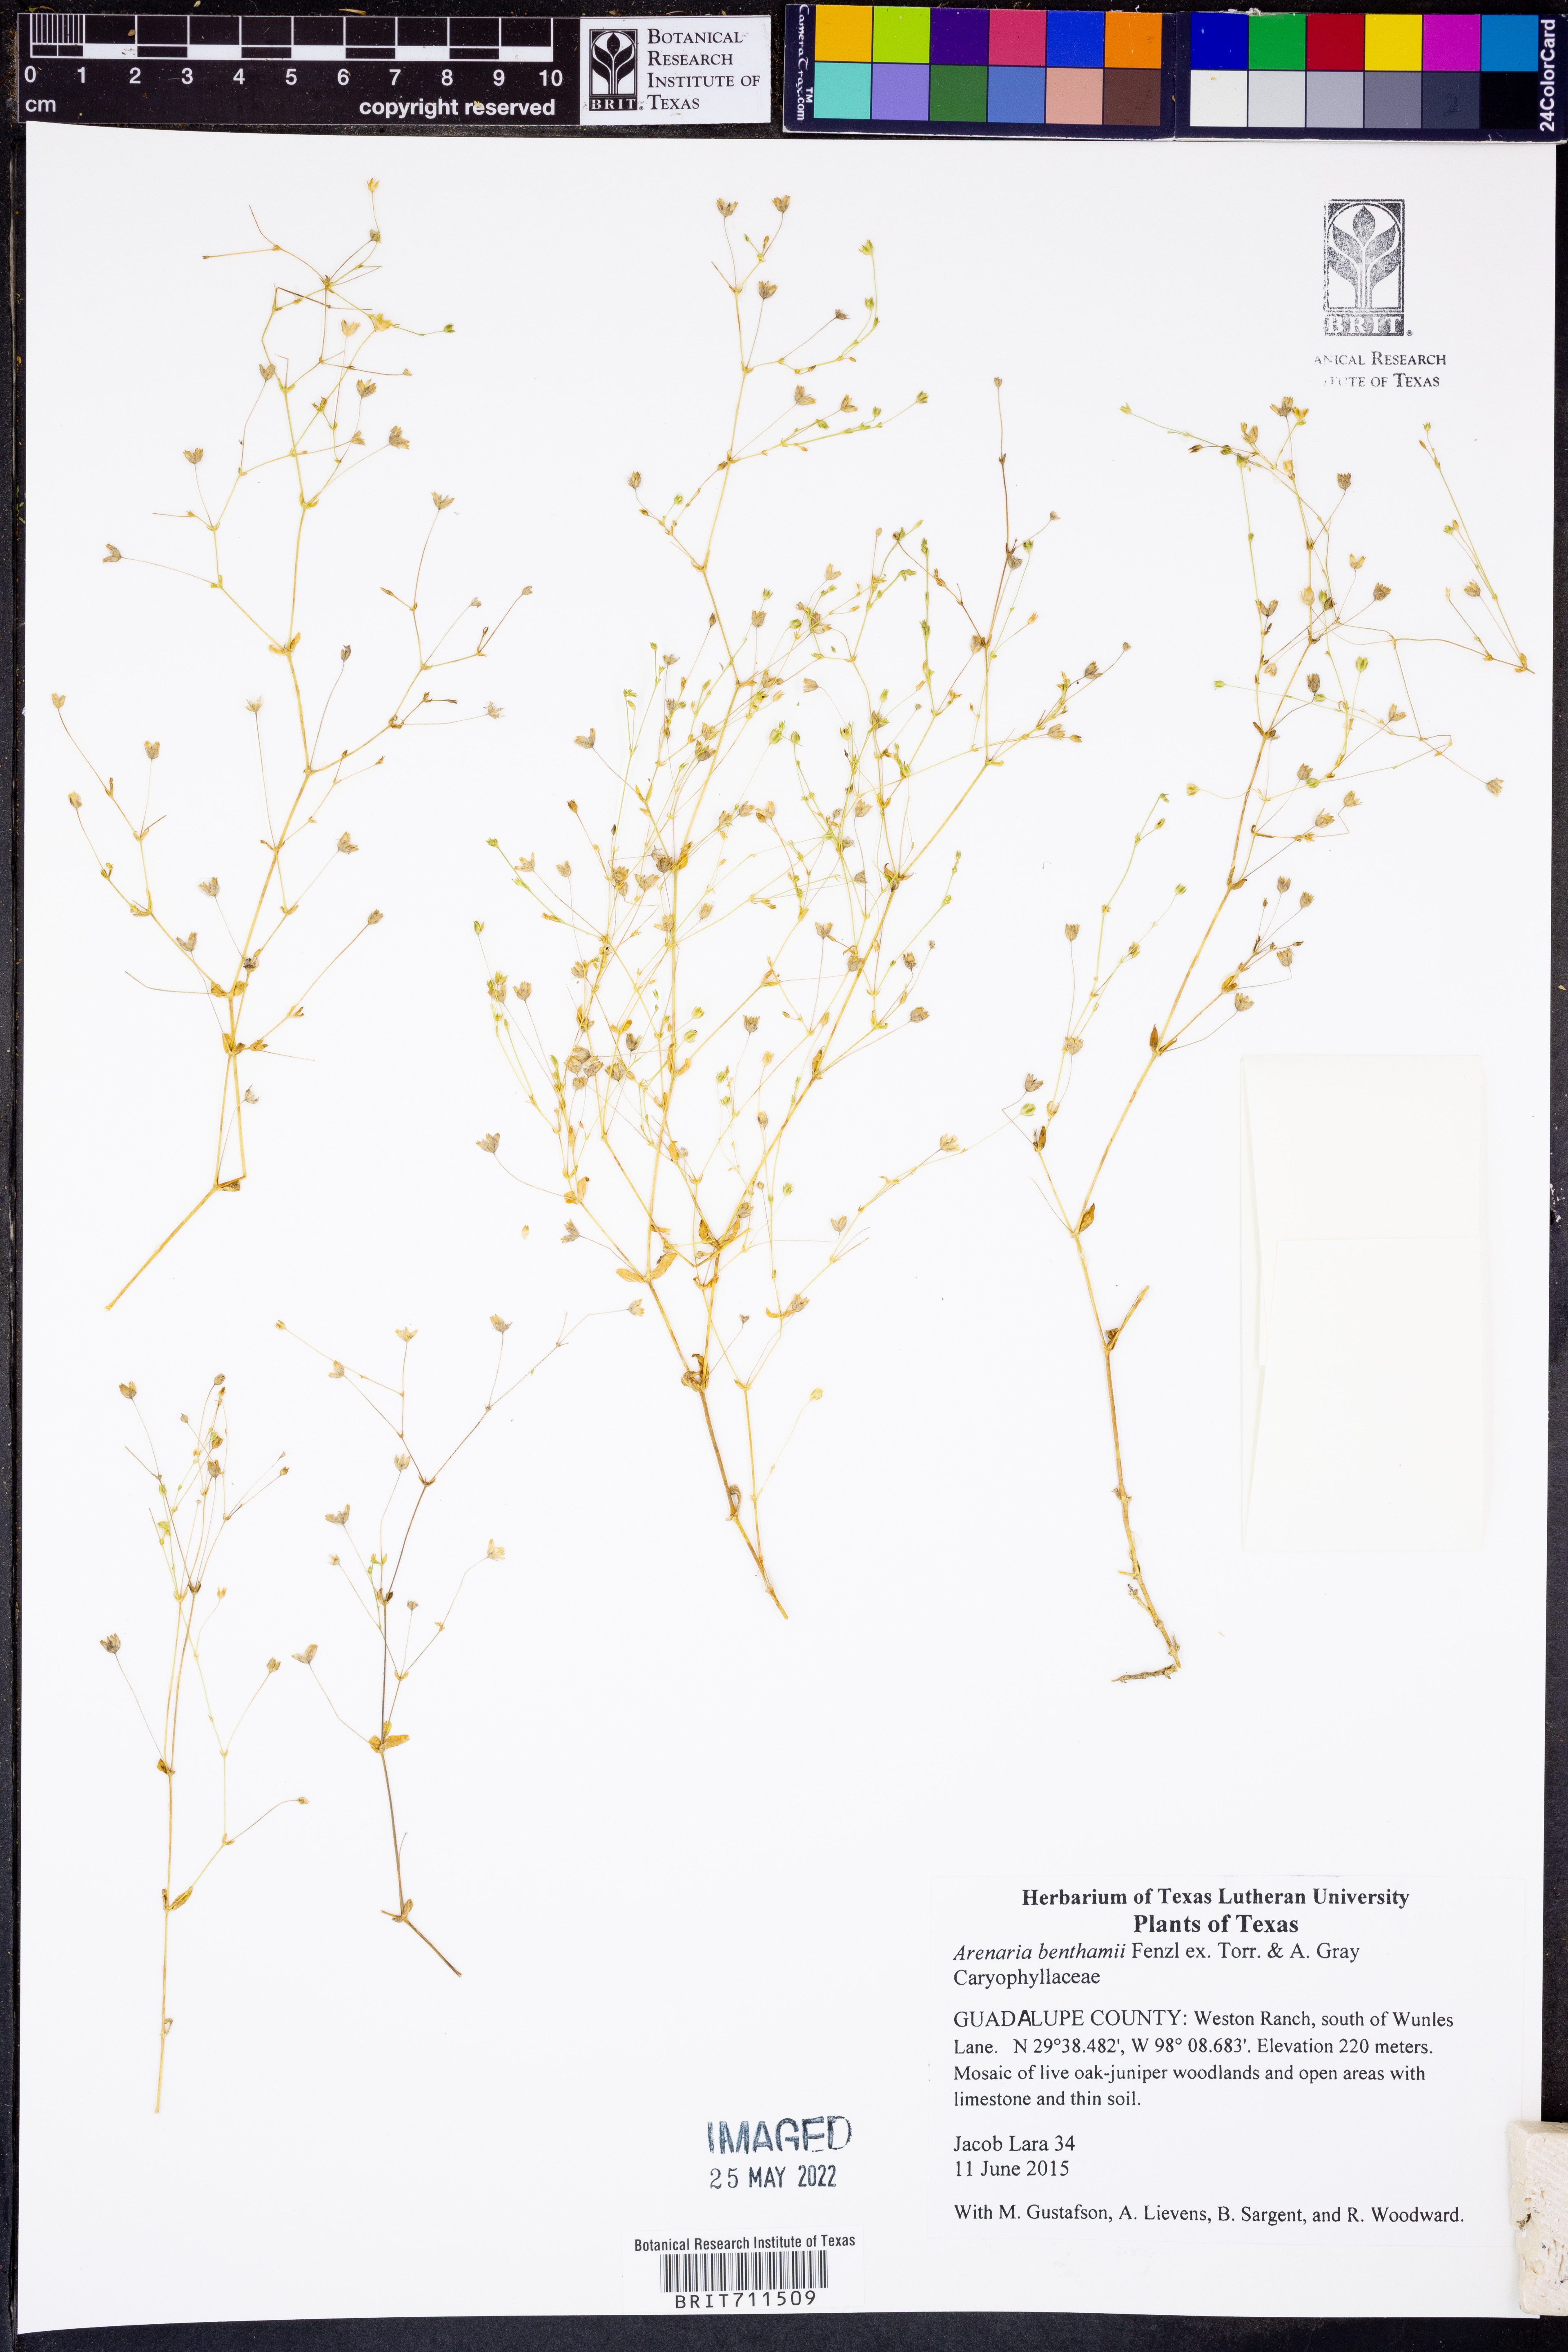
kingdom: Plantae
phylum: Tracheophyta
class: Magnoliopsida
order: Caryophyllales
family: Caryophyllaceae
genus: Arenaria
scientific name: Arenaria benthamii
